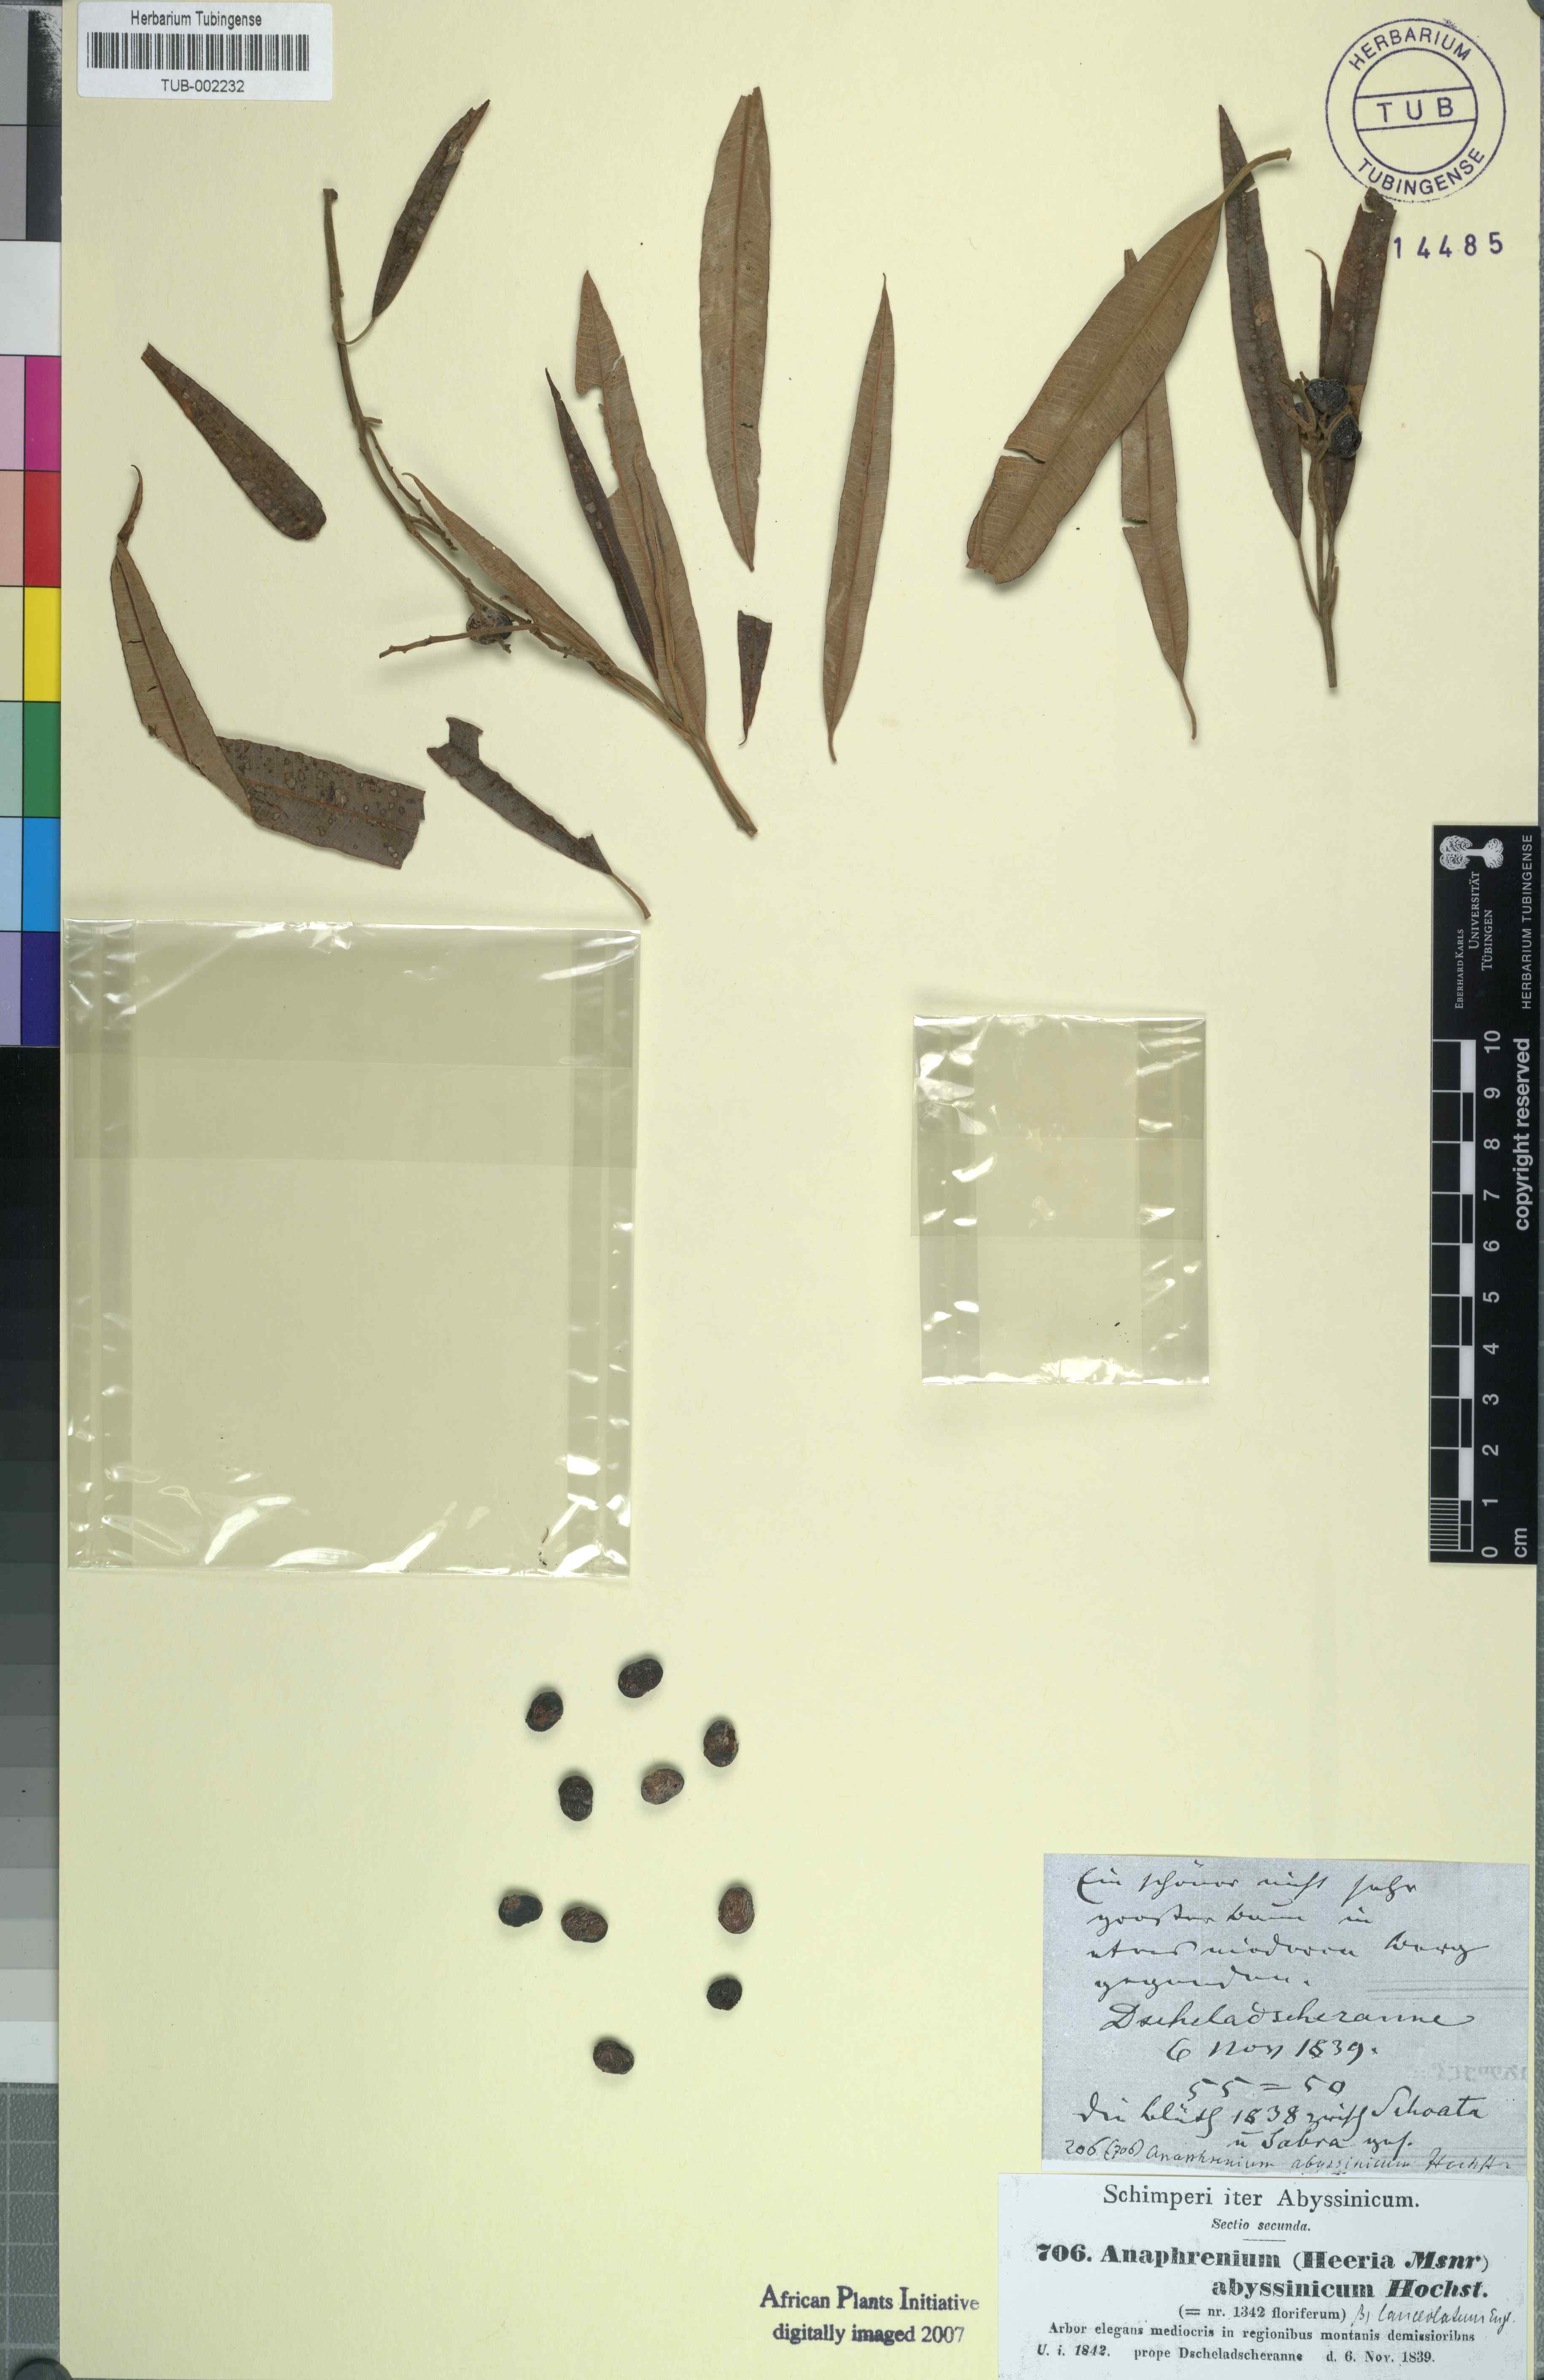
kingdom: Plantae
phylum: Tracheophyta
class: Magnoliopsida
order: Sapindales
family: Anacardiaceae
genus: Ozoroa
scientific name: Ozoroa insignis
